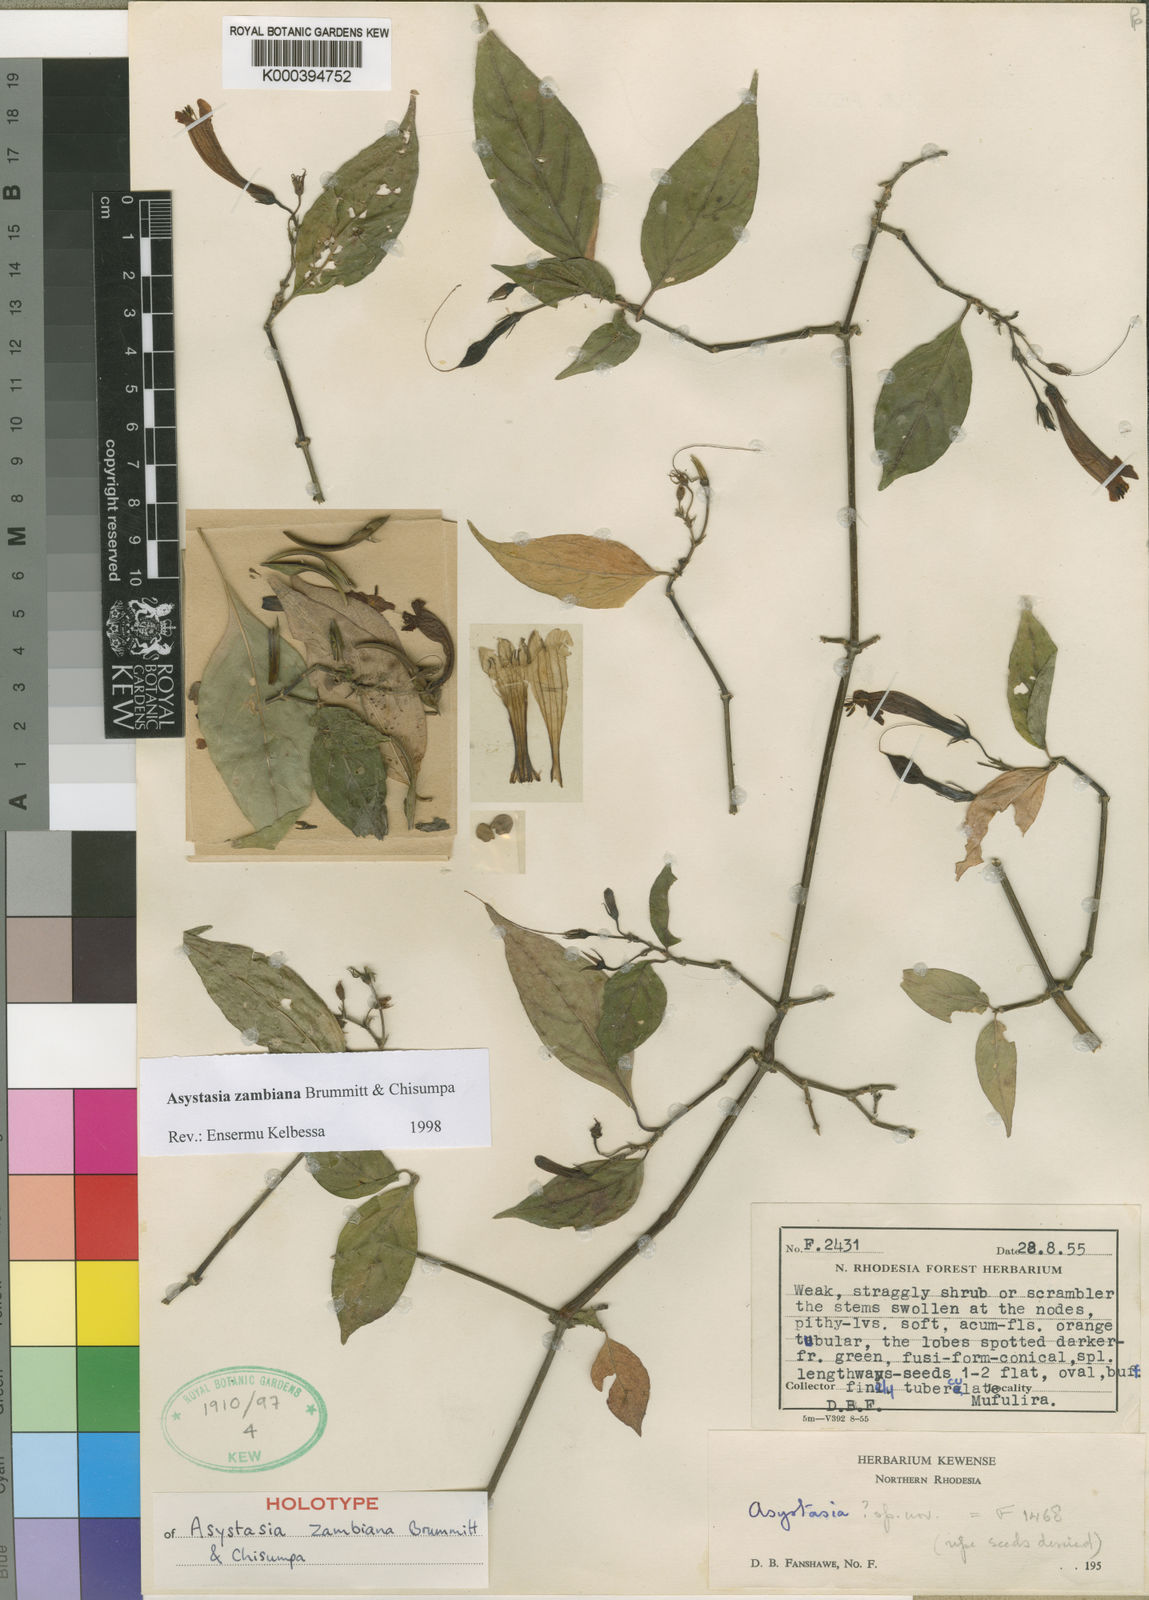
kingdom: Plantae
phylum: Tracheophyta
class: Magnoliopsida
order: Lamiales
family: Acanthaceae
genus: Asystasia
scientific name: Asystasia zambiana
